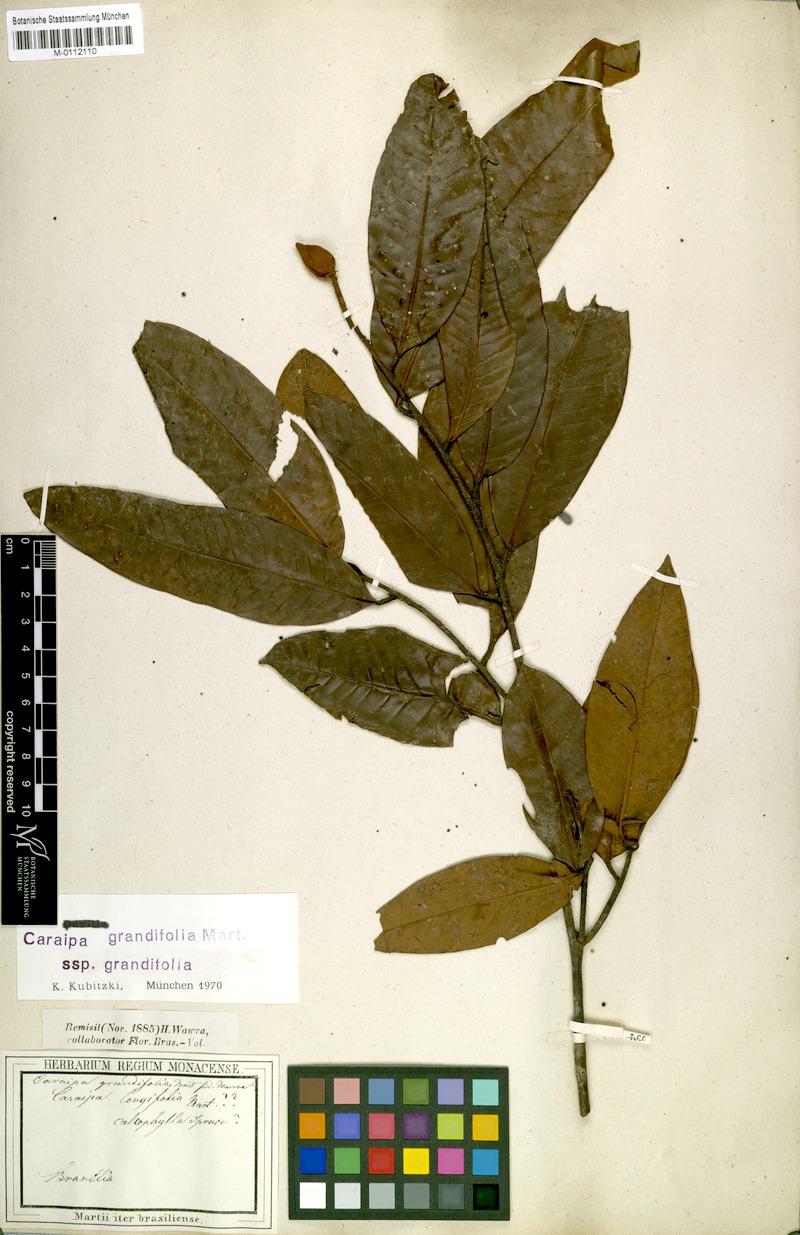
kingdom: Plantae
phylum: Tracheophyta
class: Magnoliopsida
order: Malpighiales
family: Calophyllaceae
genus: Caraipa
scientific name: Caraipa grandifolia
